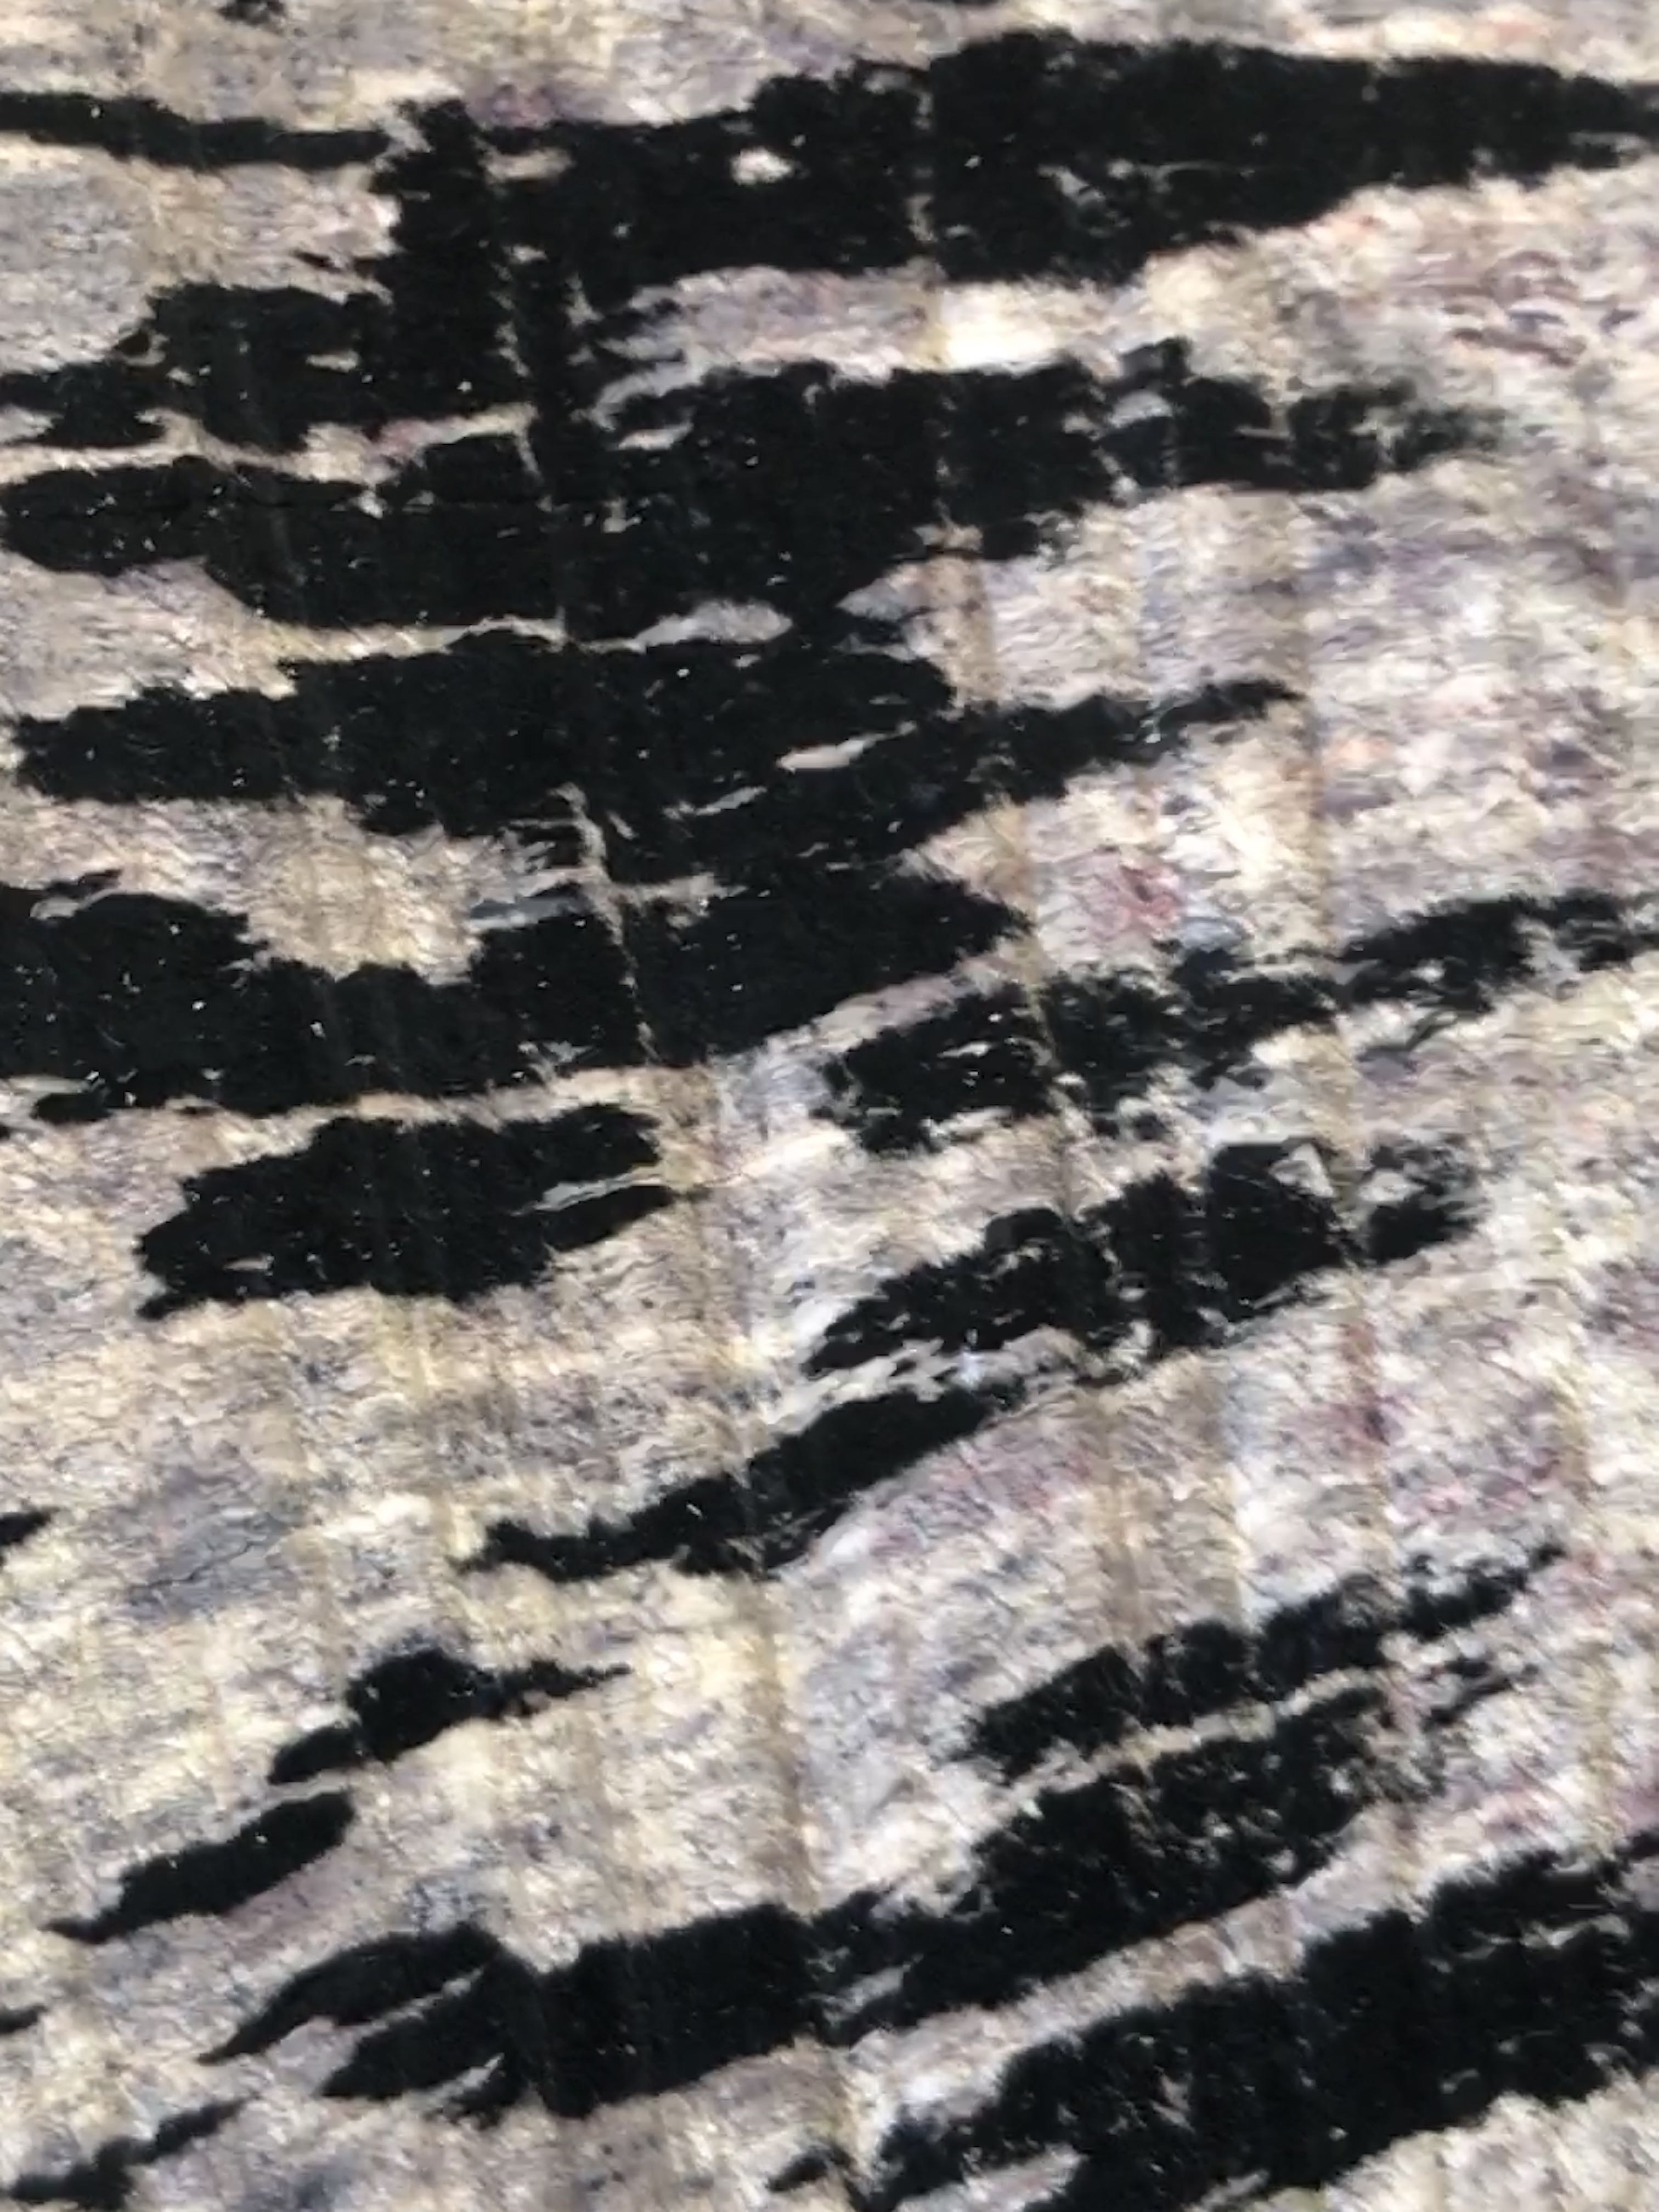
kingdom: Fungi
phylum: Ascomycota
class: Leotiomycetes
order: Helotiales
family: Helotiaceae
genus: Bispora
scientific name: Bispora pallescens
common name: måtte-snitskive
